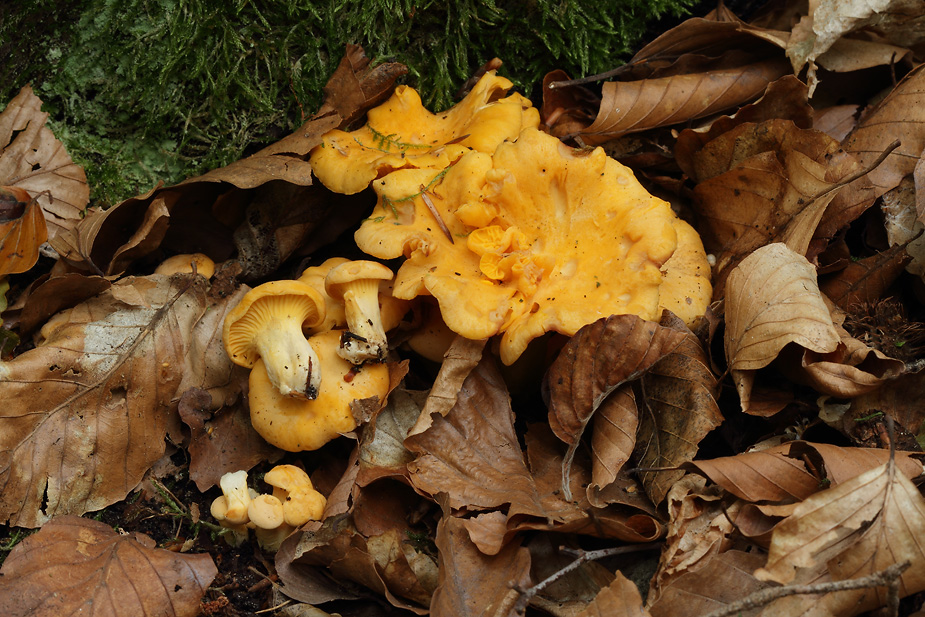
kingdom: Fungi
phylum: Basidiomycota
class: Agaricomycetes
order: Cantharellales
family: Hydnaceae
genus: Cantharellus
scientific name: Cantharellus pallens
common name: bleg kantarel
